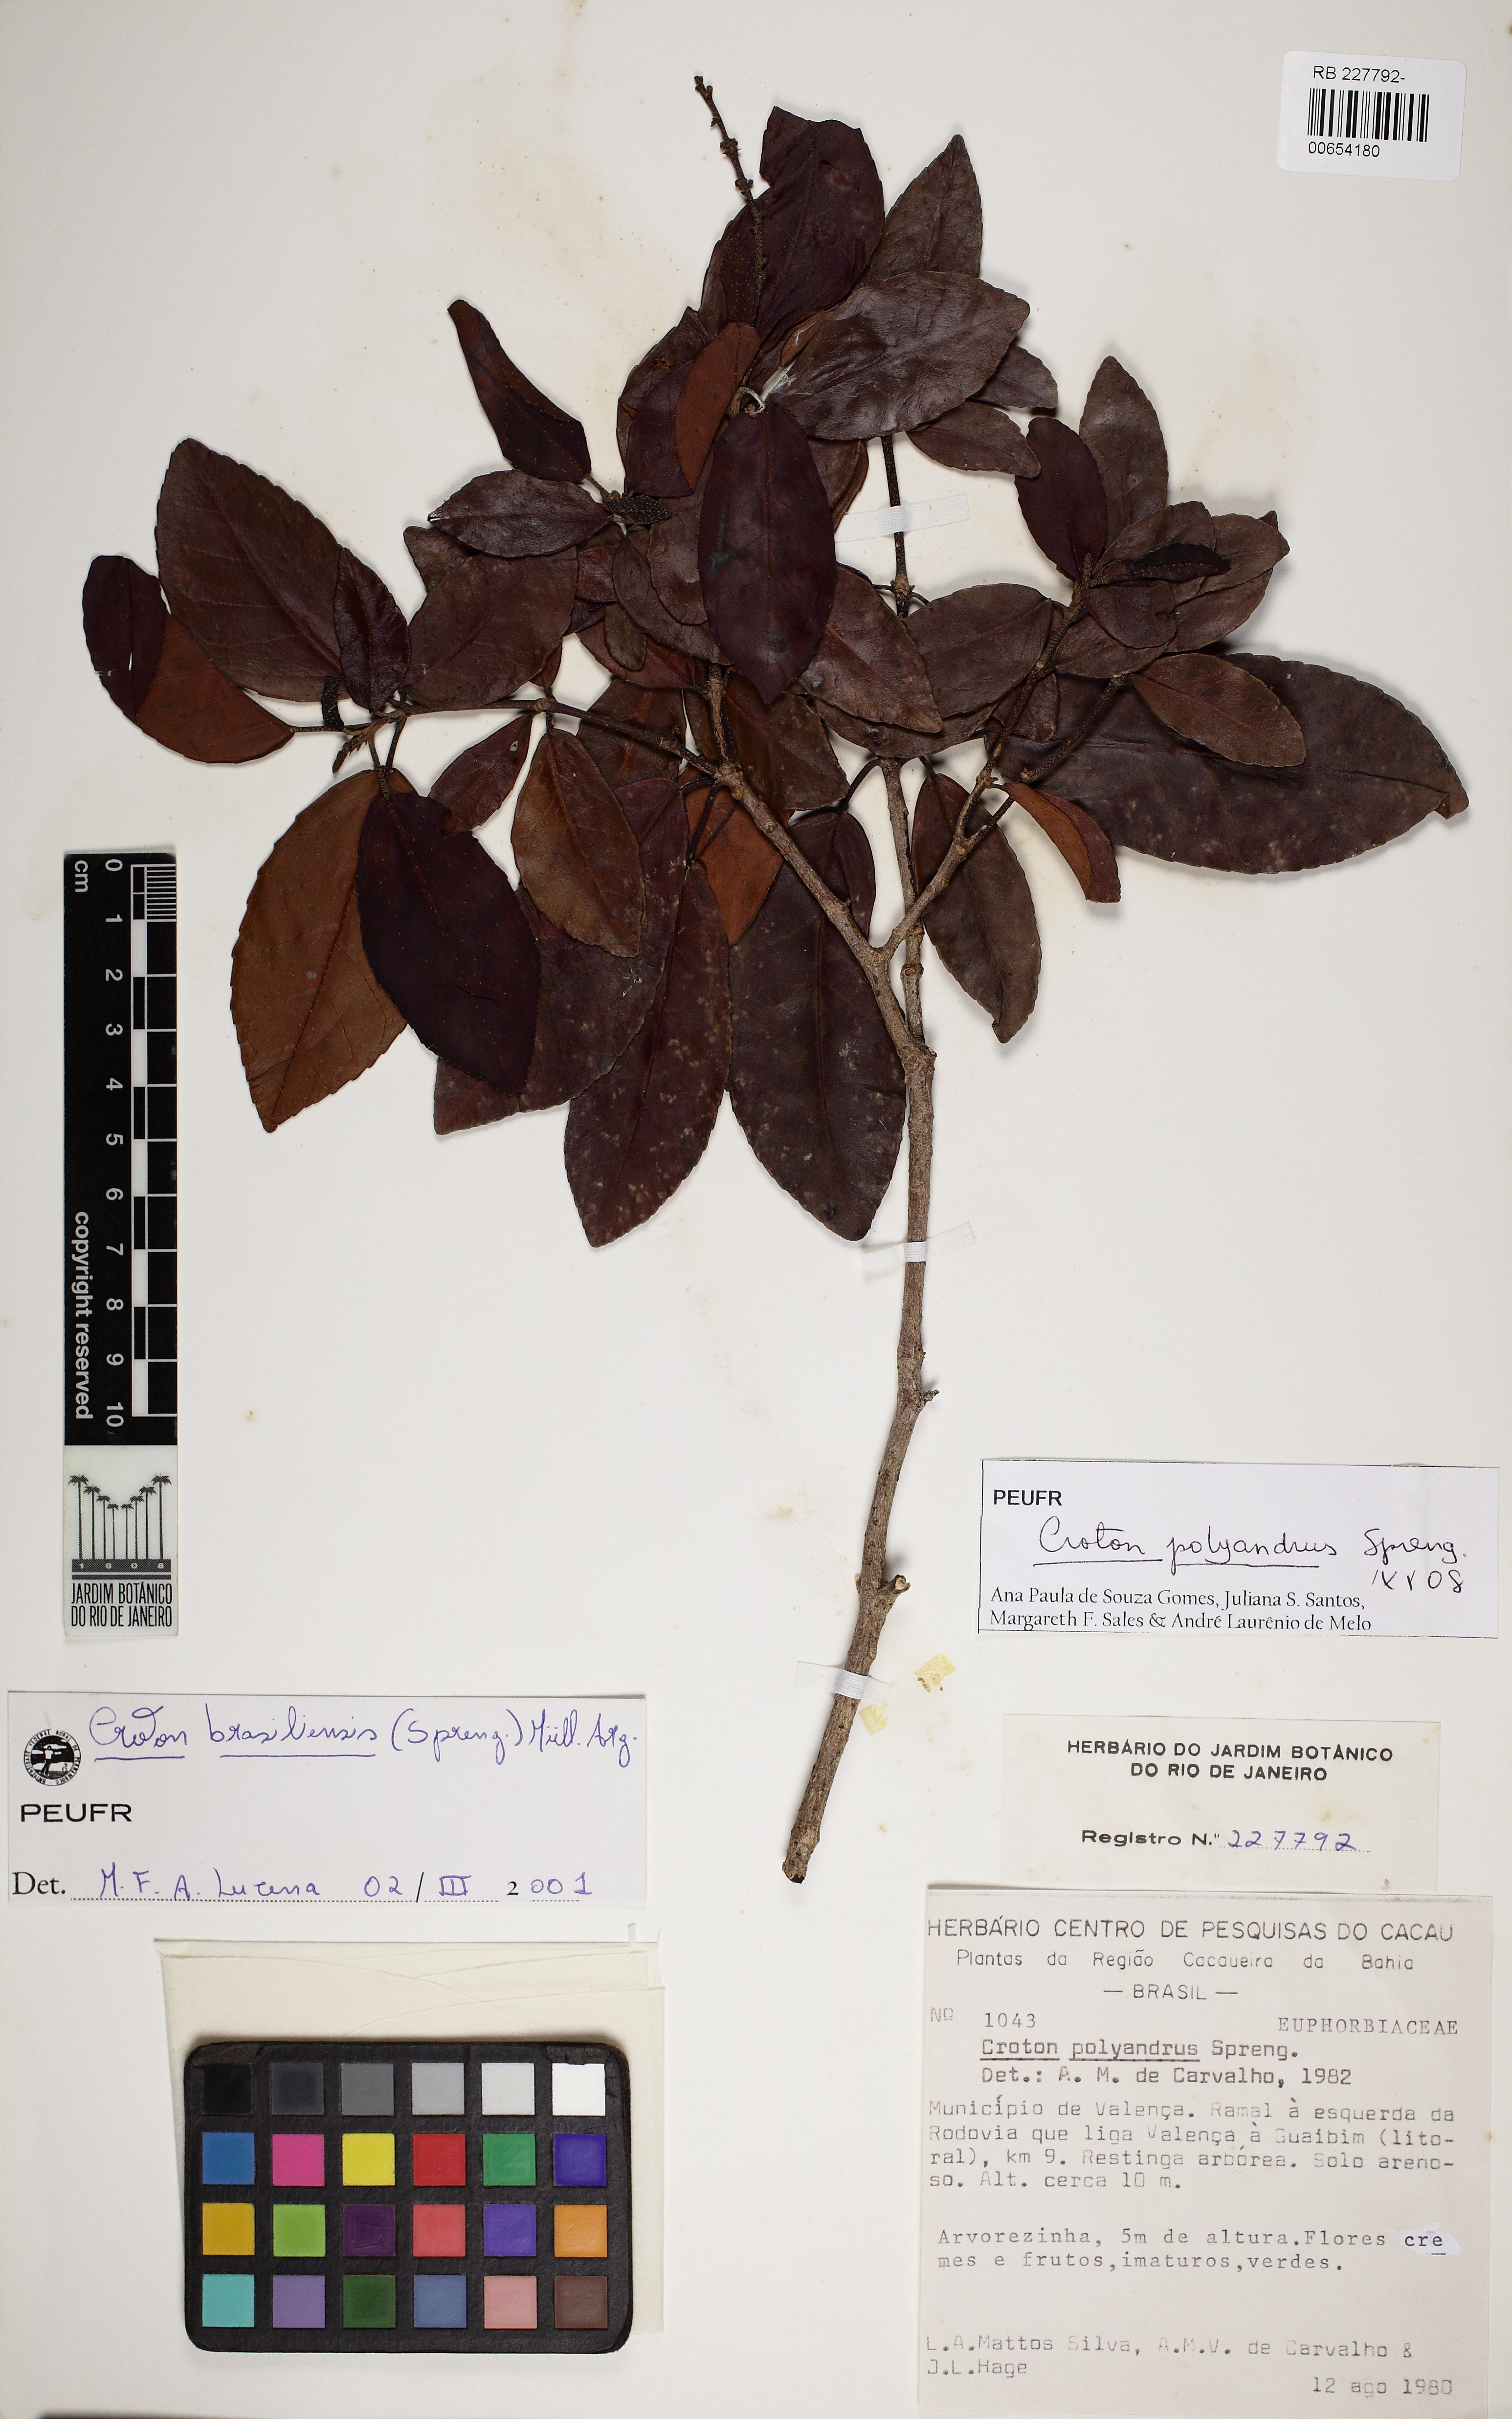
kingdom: Plantae
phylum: Tracheophyta
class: Magnoliopsida
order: Malpighiales
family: Euphorbiaceae
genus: Croton
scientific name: Croton polyandrus
